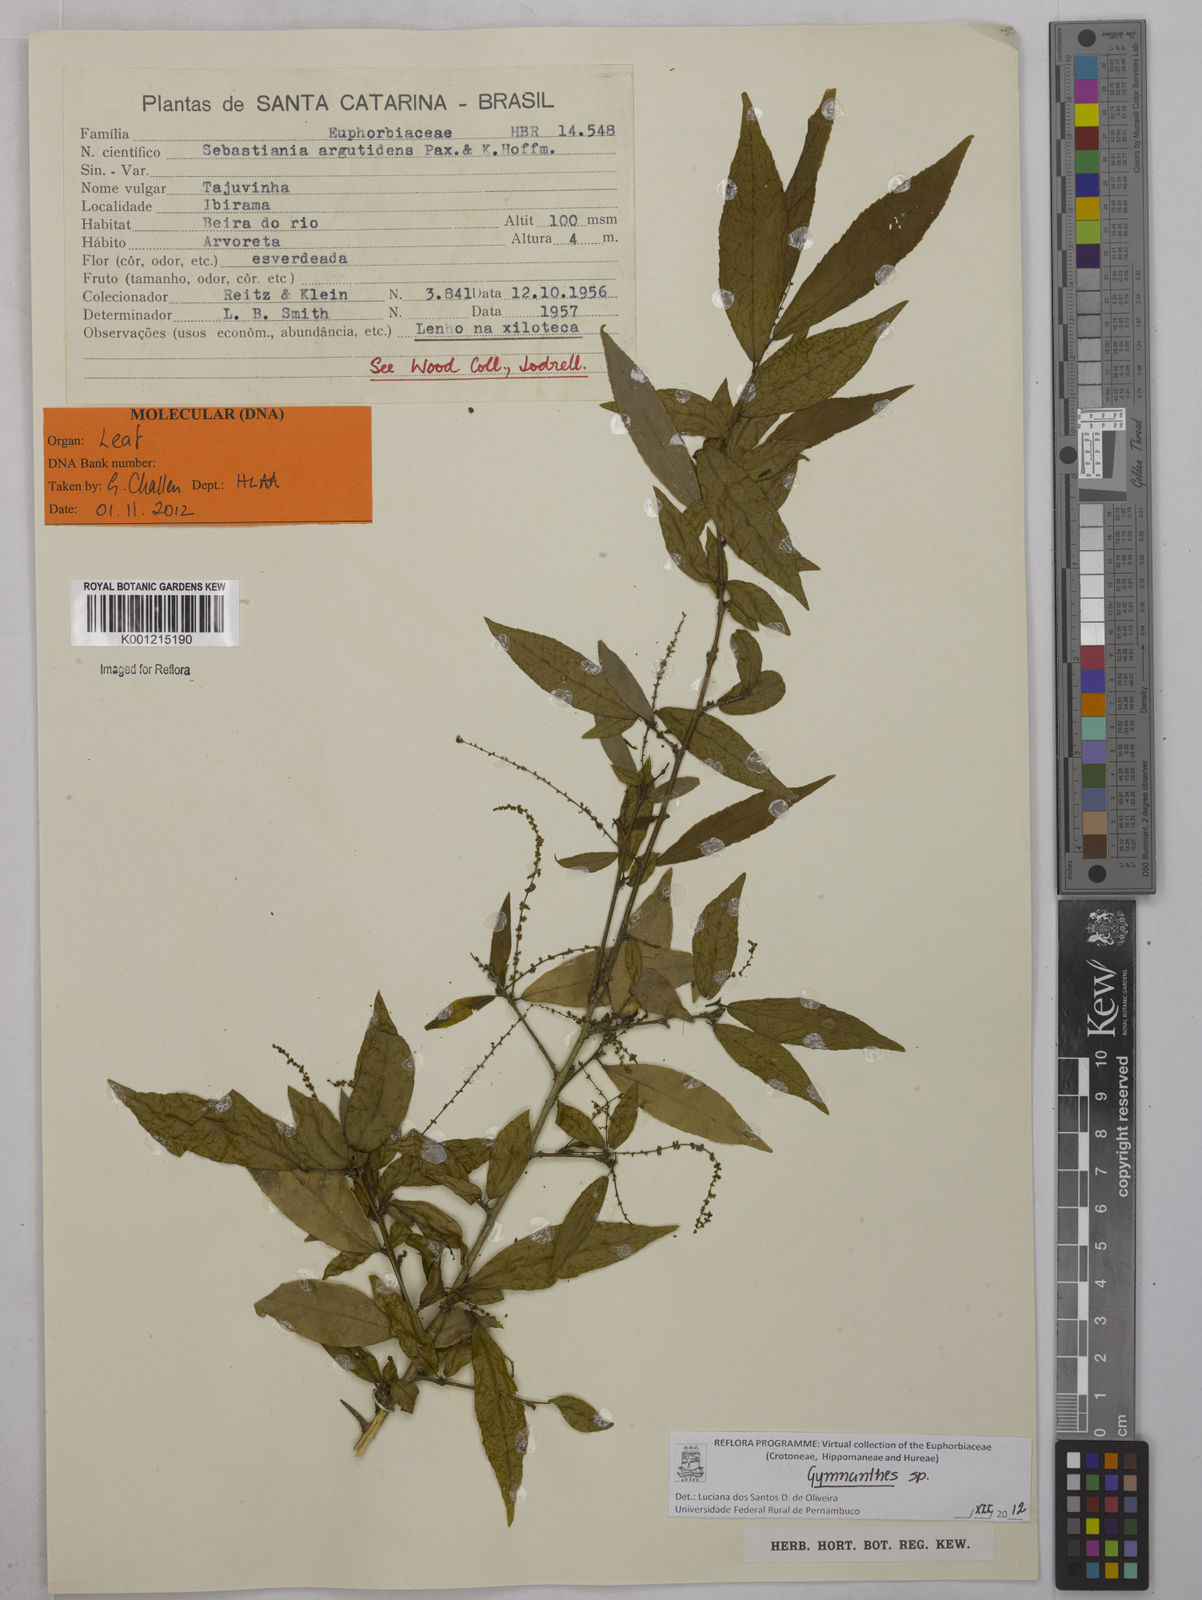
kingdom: Plantae
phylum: Tracheophyta
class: Magnoliopsida
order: Malpighiales
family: Euphorbiaceae
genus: Gymnanthes
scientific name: Gymnanthes
